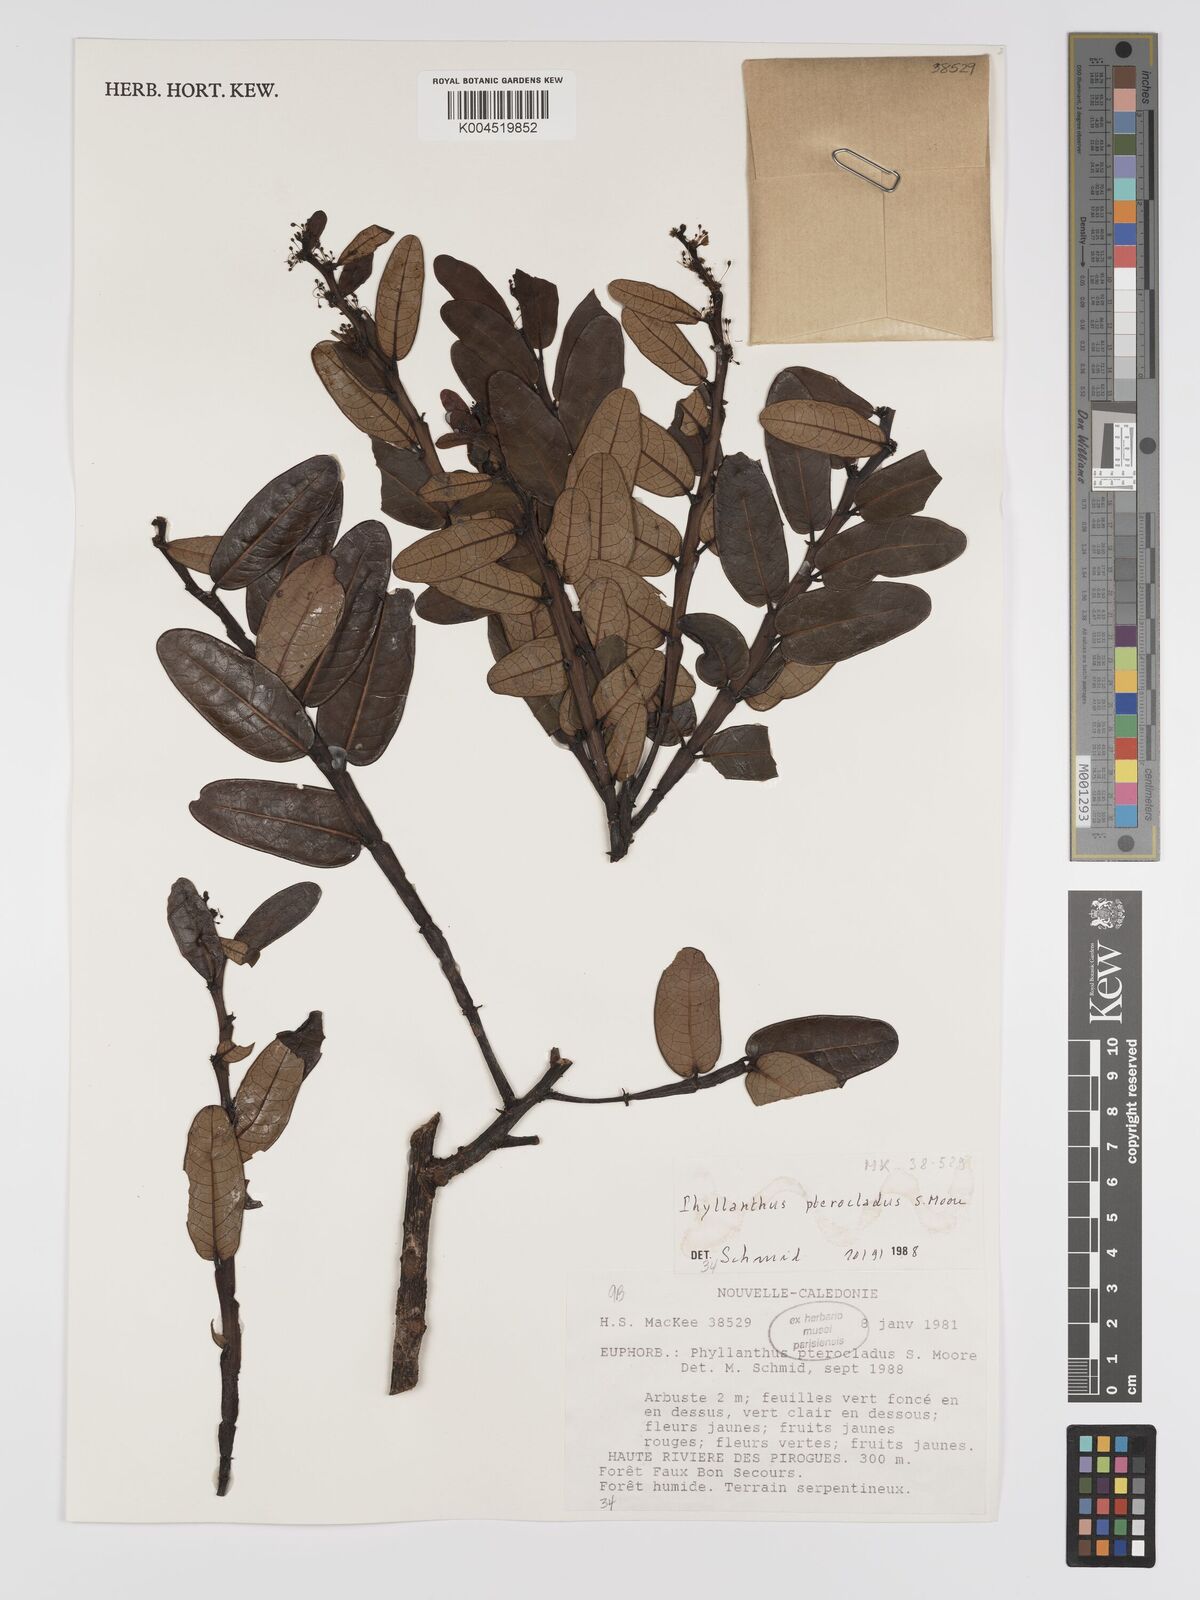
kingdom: Plantae
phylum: Tracheophyta
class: Magnoliopsida
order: Malpighiales
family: Phyllanthaceae
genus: Phyllanthus
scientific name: Phyllanthus pterocladus
